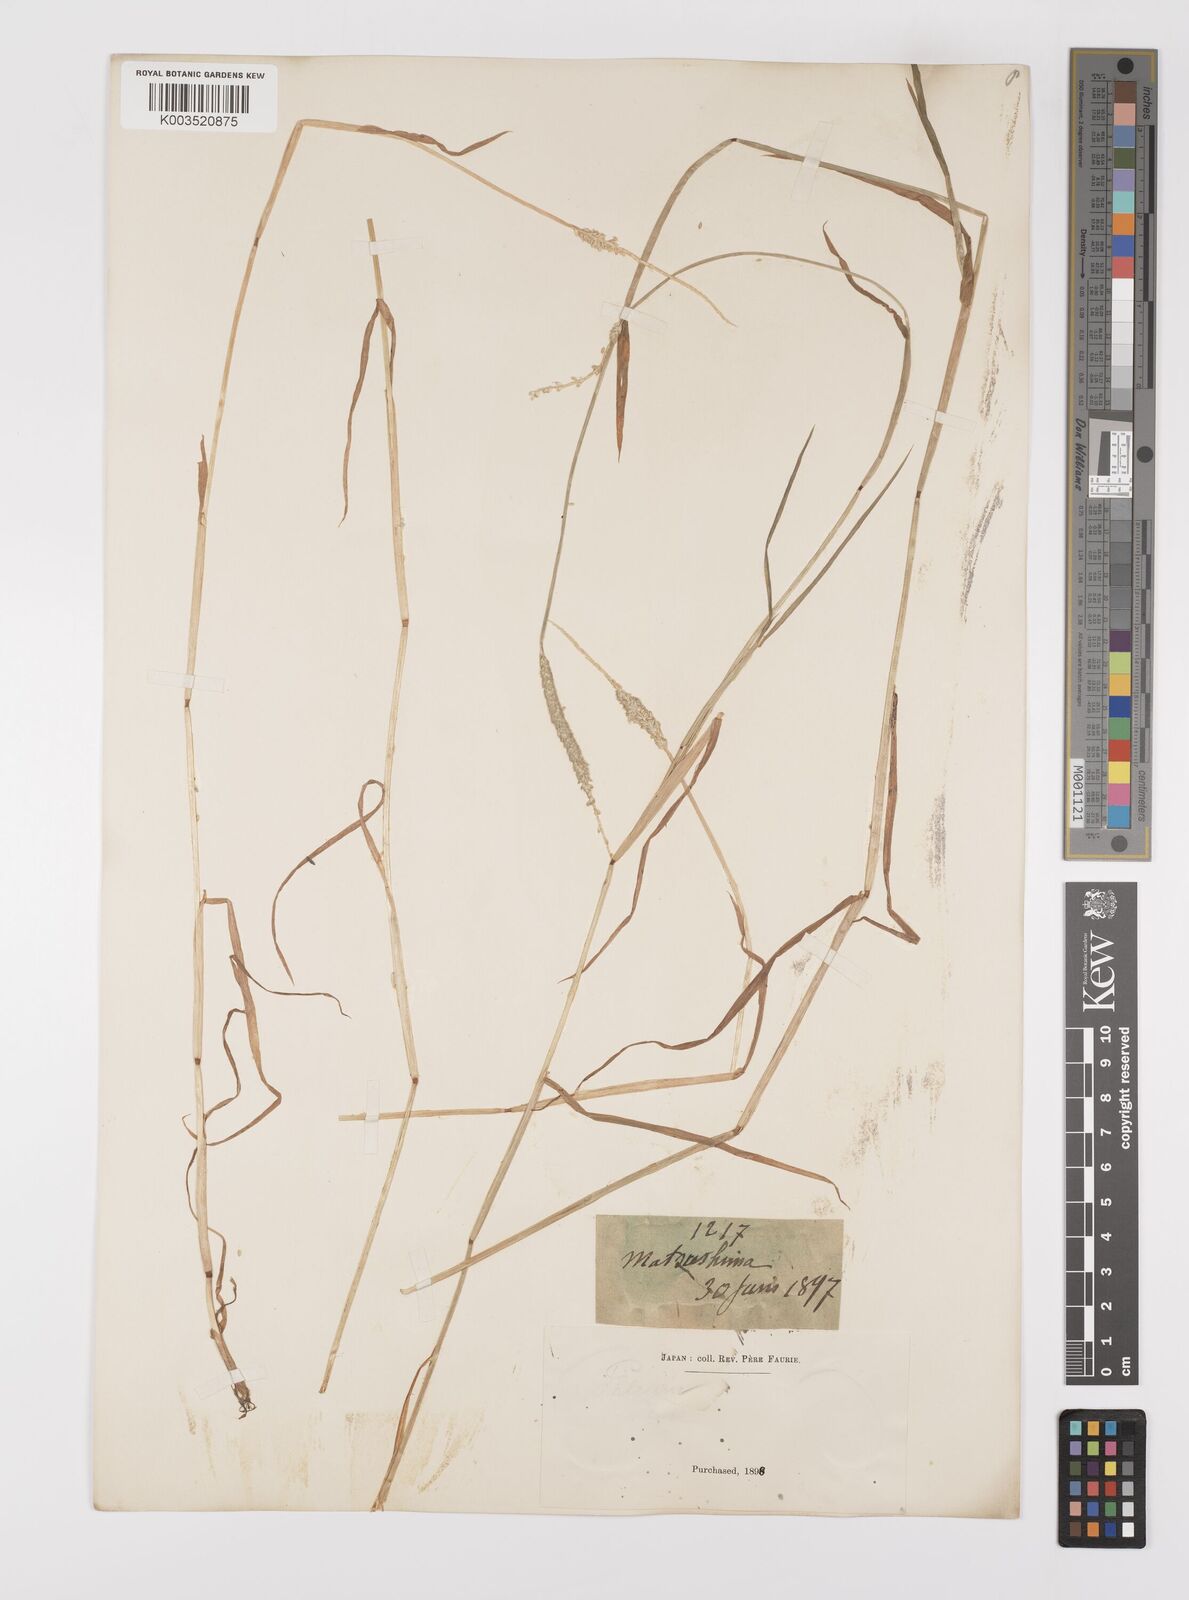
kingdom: Plantae
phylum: Tracheophyta
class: Liliopsida
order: Poales
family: Poaceae
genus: Alopecurus
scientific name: Alopecurus aequalis
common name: Orange foxtail
